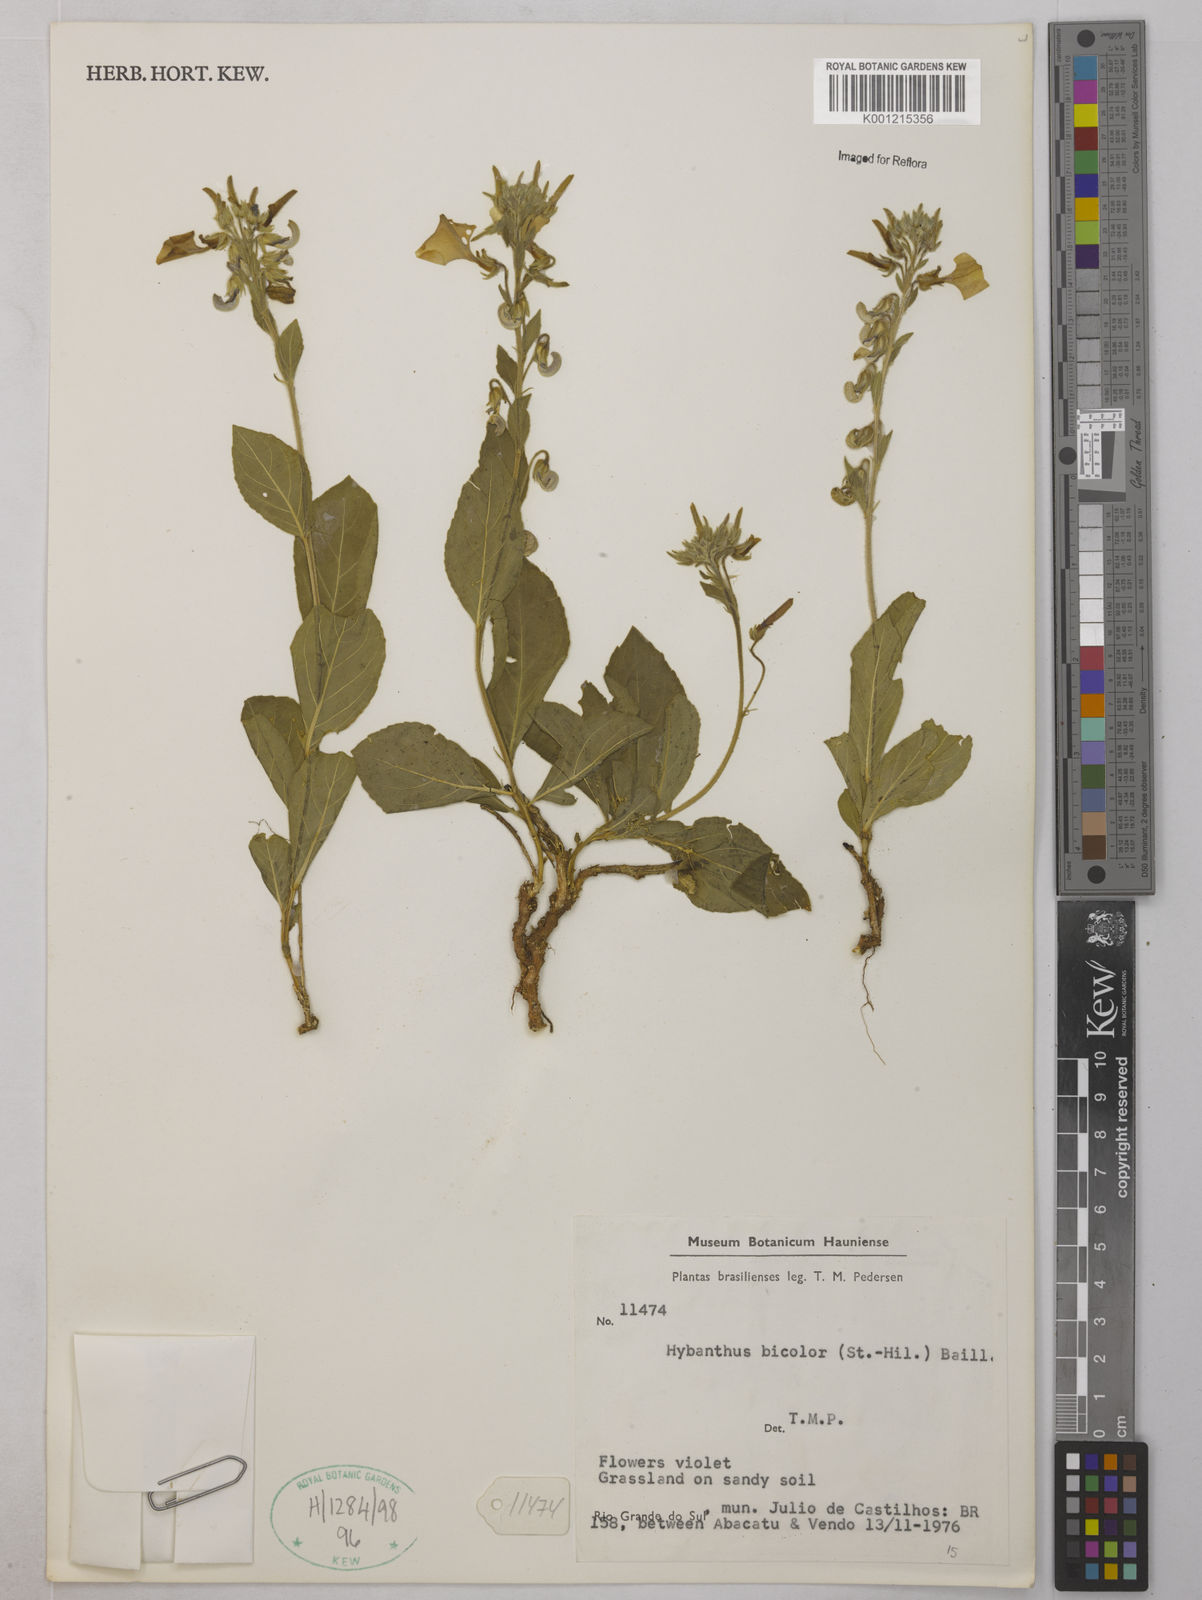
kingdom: Plantae
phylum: Tracheophyta
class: Magnoliopsida
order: Malpighiales
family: Violaceae
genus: Pombalia
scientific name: Pombalia communis
